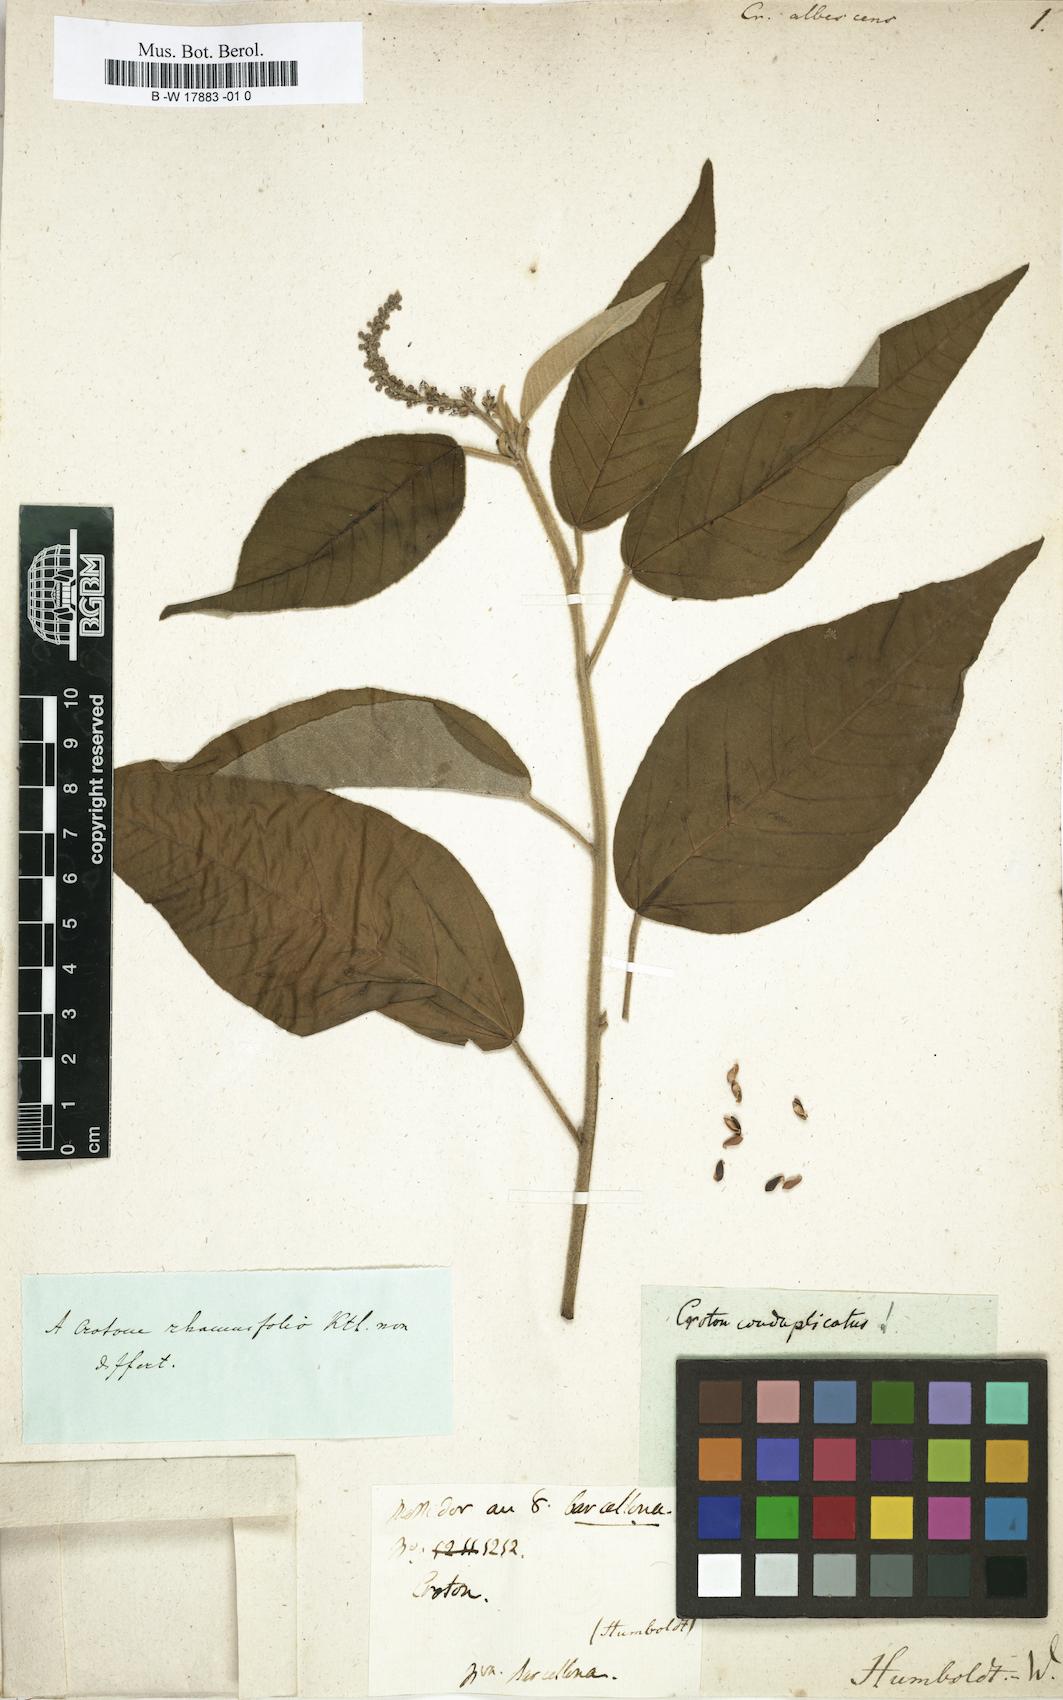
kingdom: Plantae
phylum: Tracheophyta
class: Magnoliopsida
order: Malpighiales
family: Euphorbiaceae
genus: Croton
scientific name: Croton albescens
